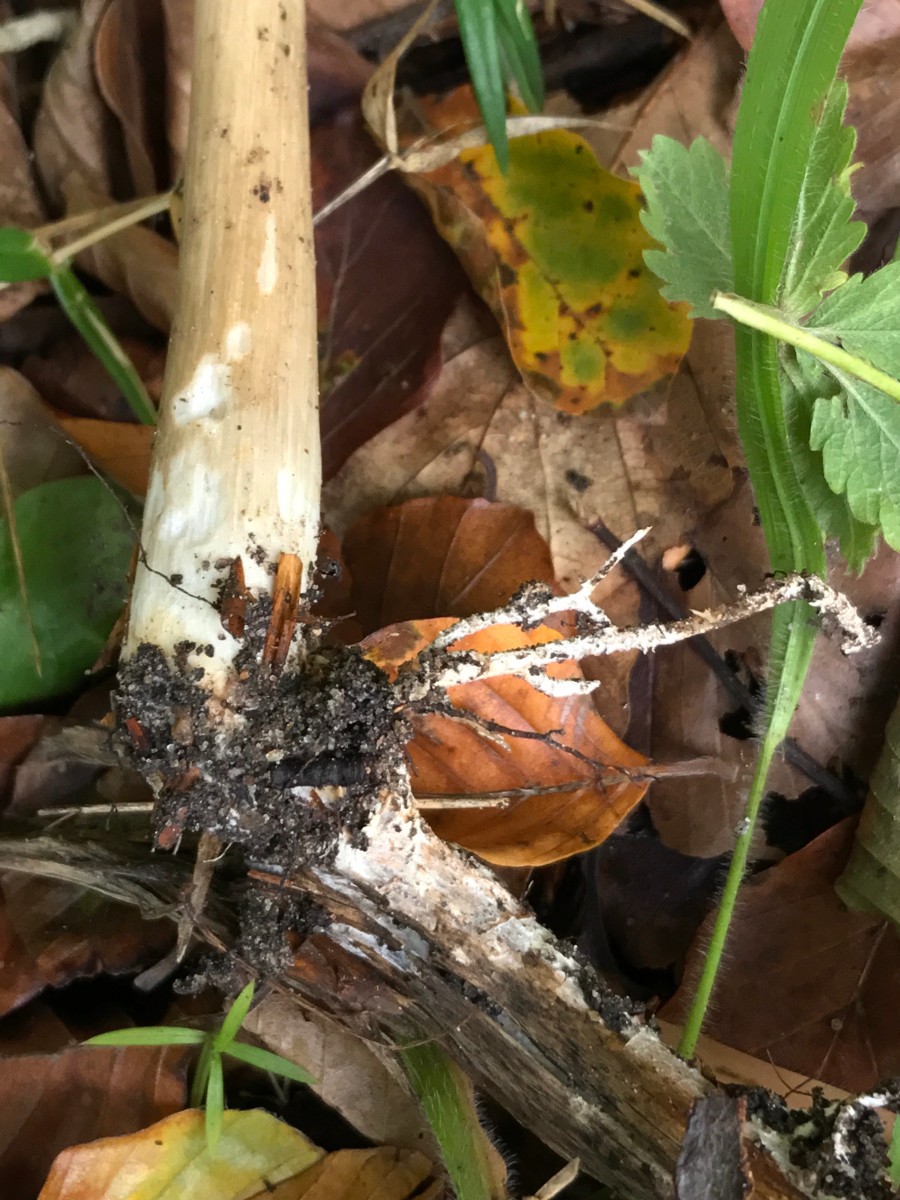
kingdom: Fungi
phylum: Basidiomycota
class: Agaricomycetes
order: Agaricales
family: Tricholomataceae
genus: Megacollybia
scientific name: Megacollybia platyphylla
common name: bredbladet væbnerhat
